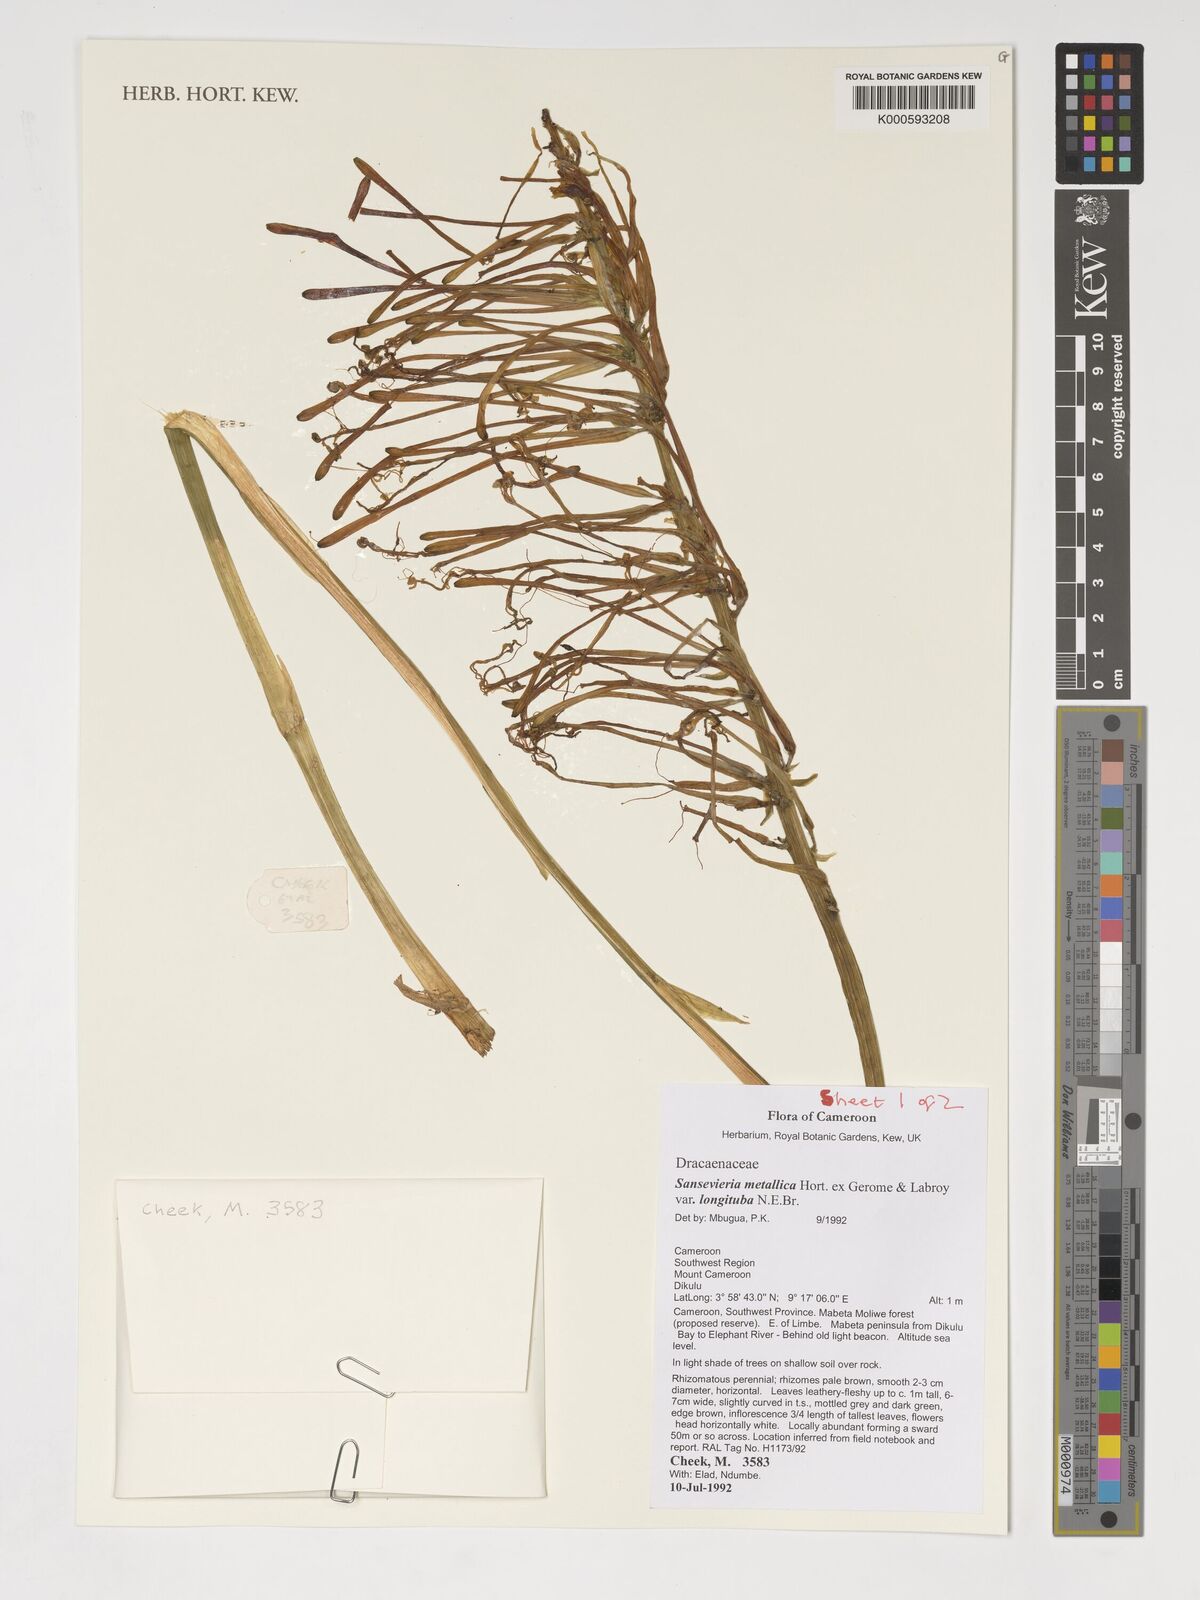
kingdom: Plantae
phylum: Tracheophyta
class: Liliopsida
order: Asparagales
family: Asparagaceae
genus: Dracaena
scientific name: Dracaena zebra
